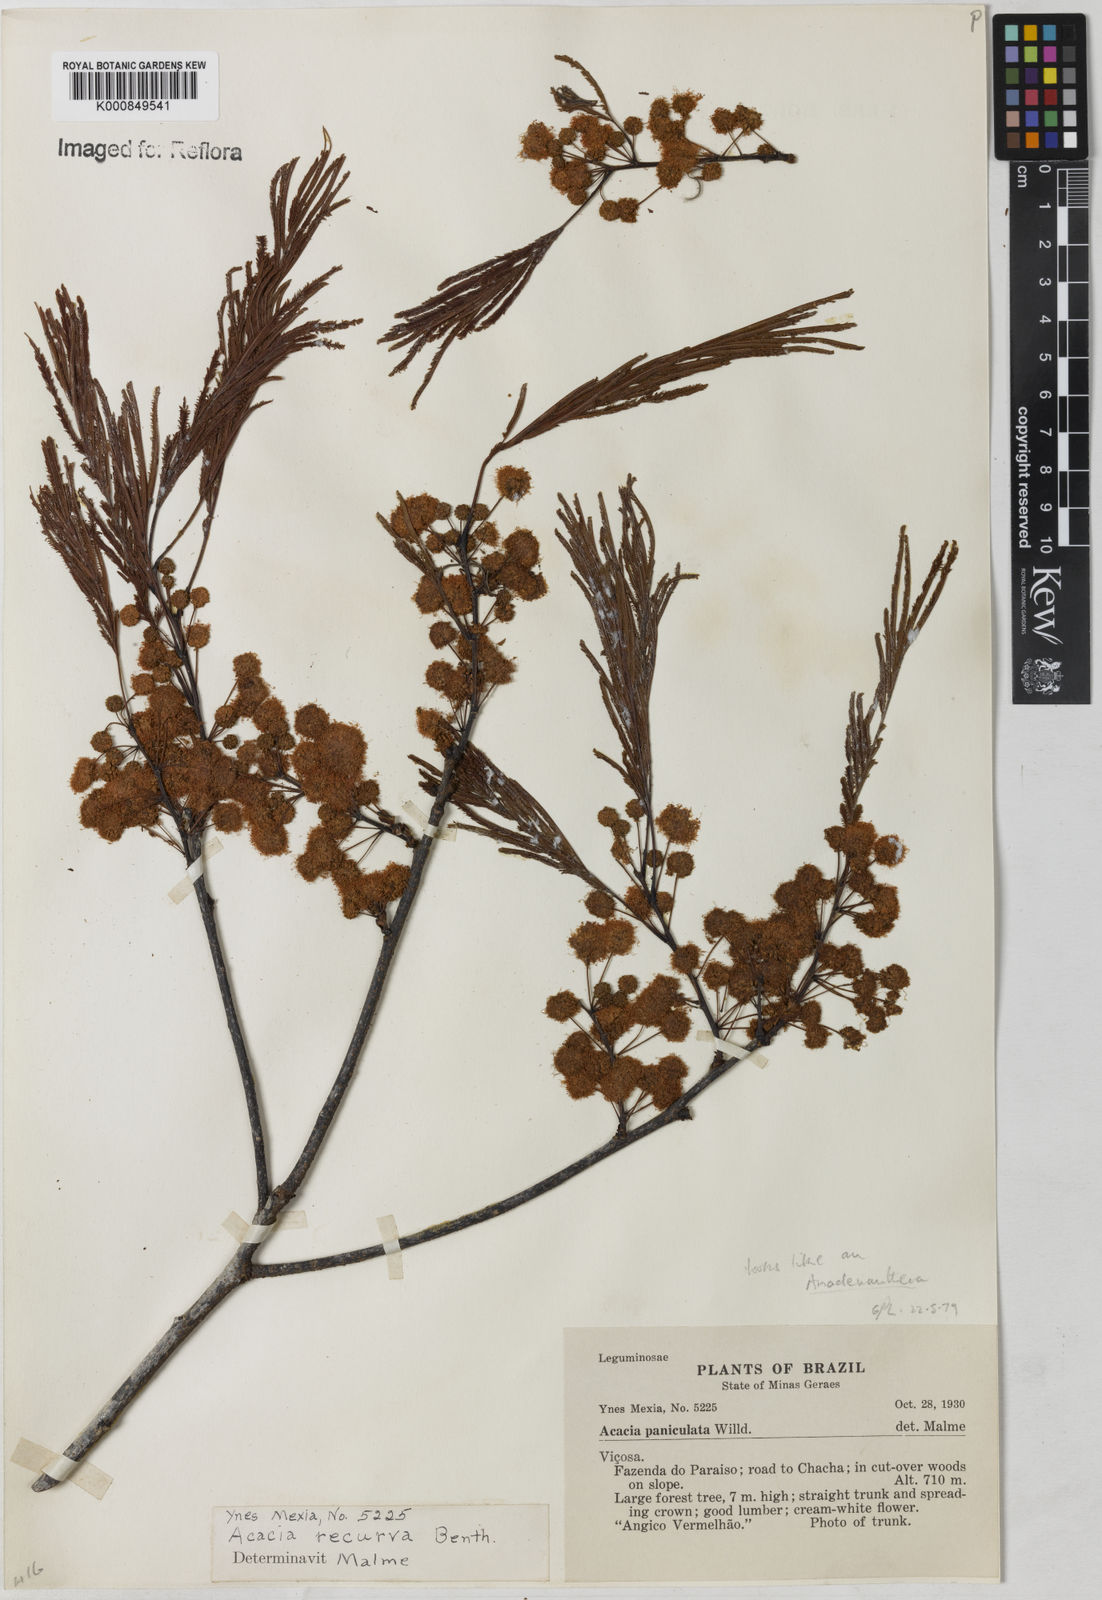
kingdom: Plantae
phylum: Tracheophyta
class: Magnoliopsida
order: Fabales
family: Fabaceae
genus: Anadenanthera
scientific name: Anadenanthera
